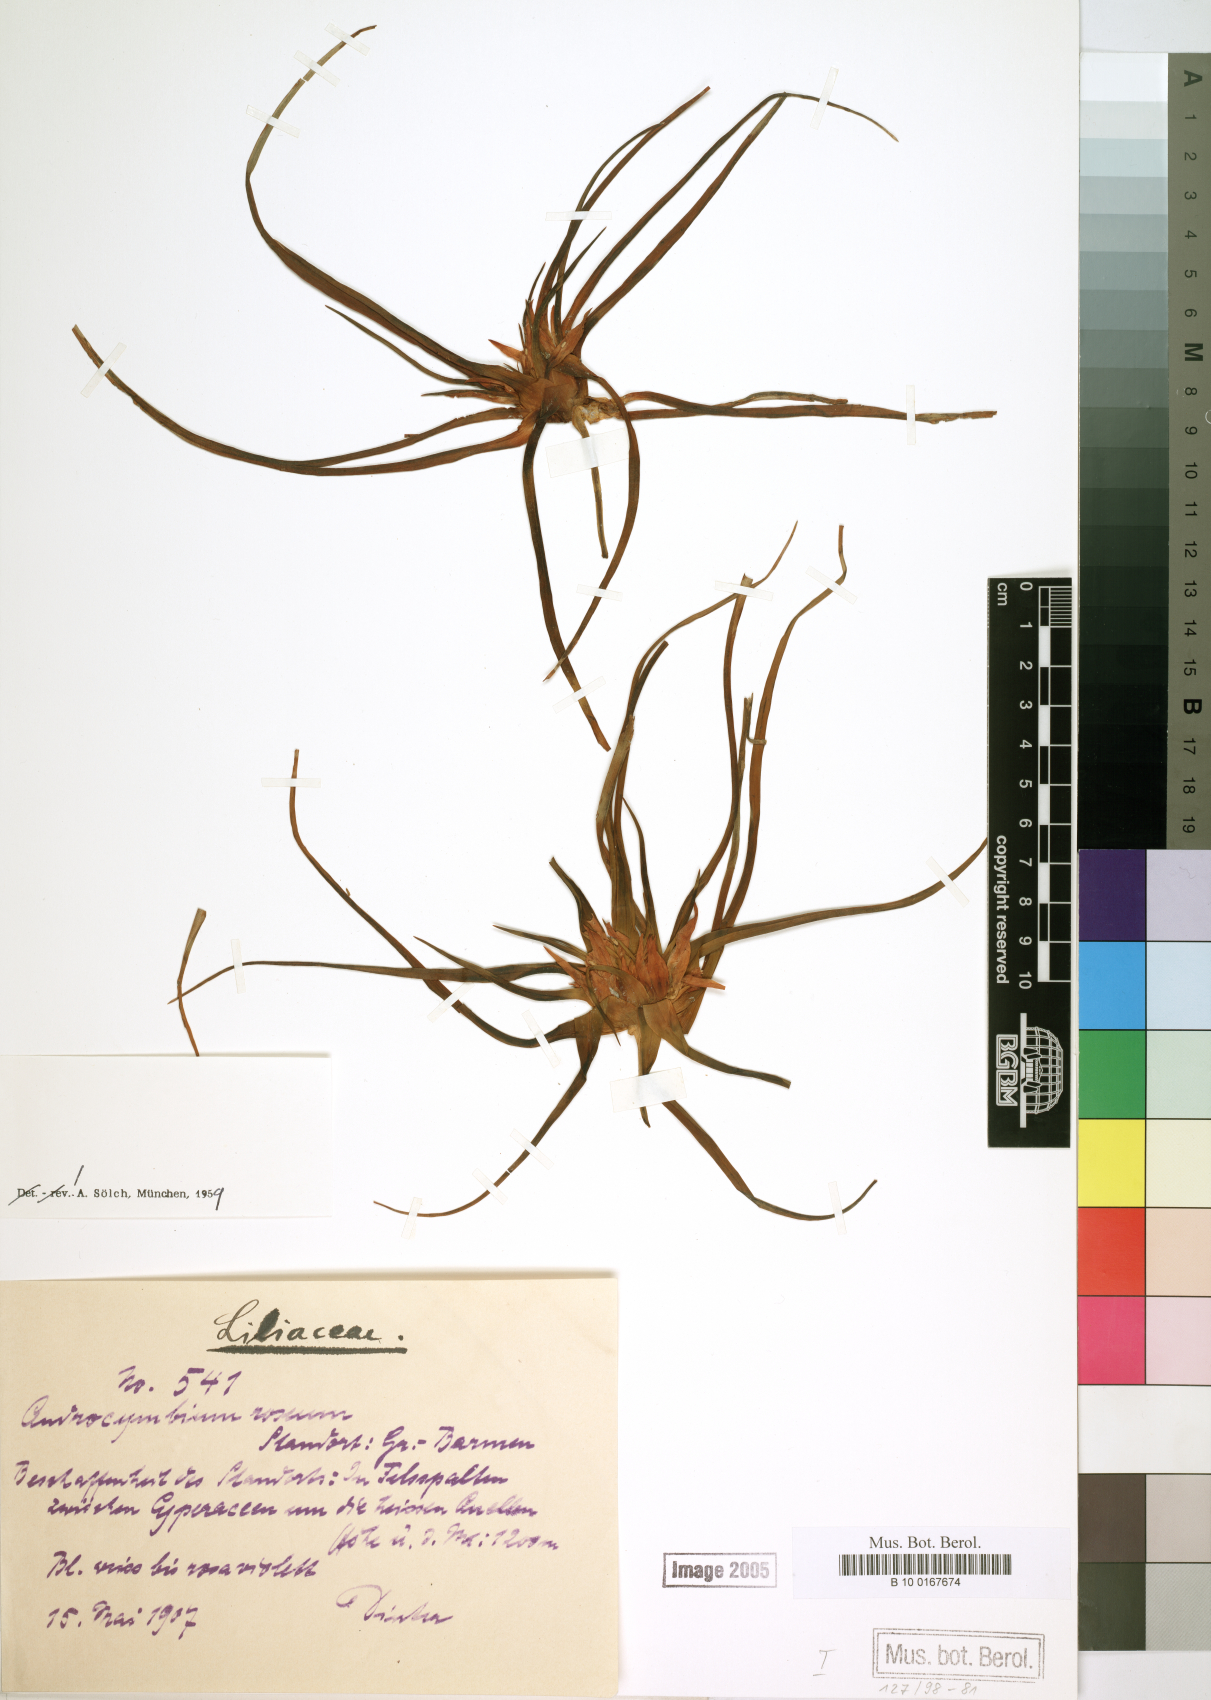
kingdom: Plantae
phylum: Tracheophyta
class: Liliopsida
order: Liliales
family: Colchicaceae
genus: Colchicum
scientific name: Colchicum roseum
